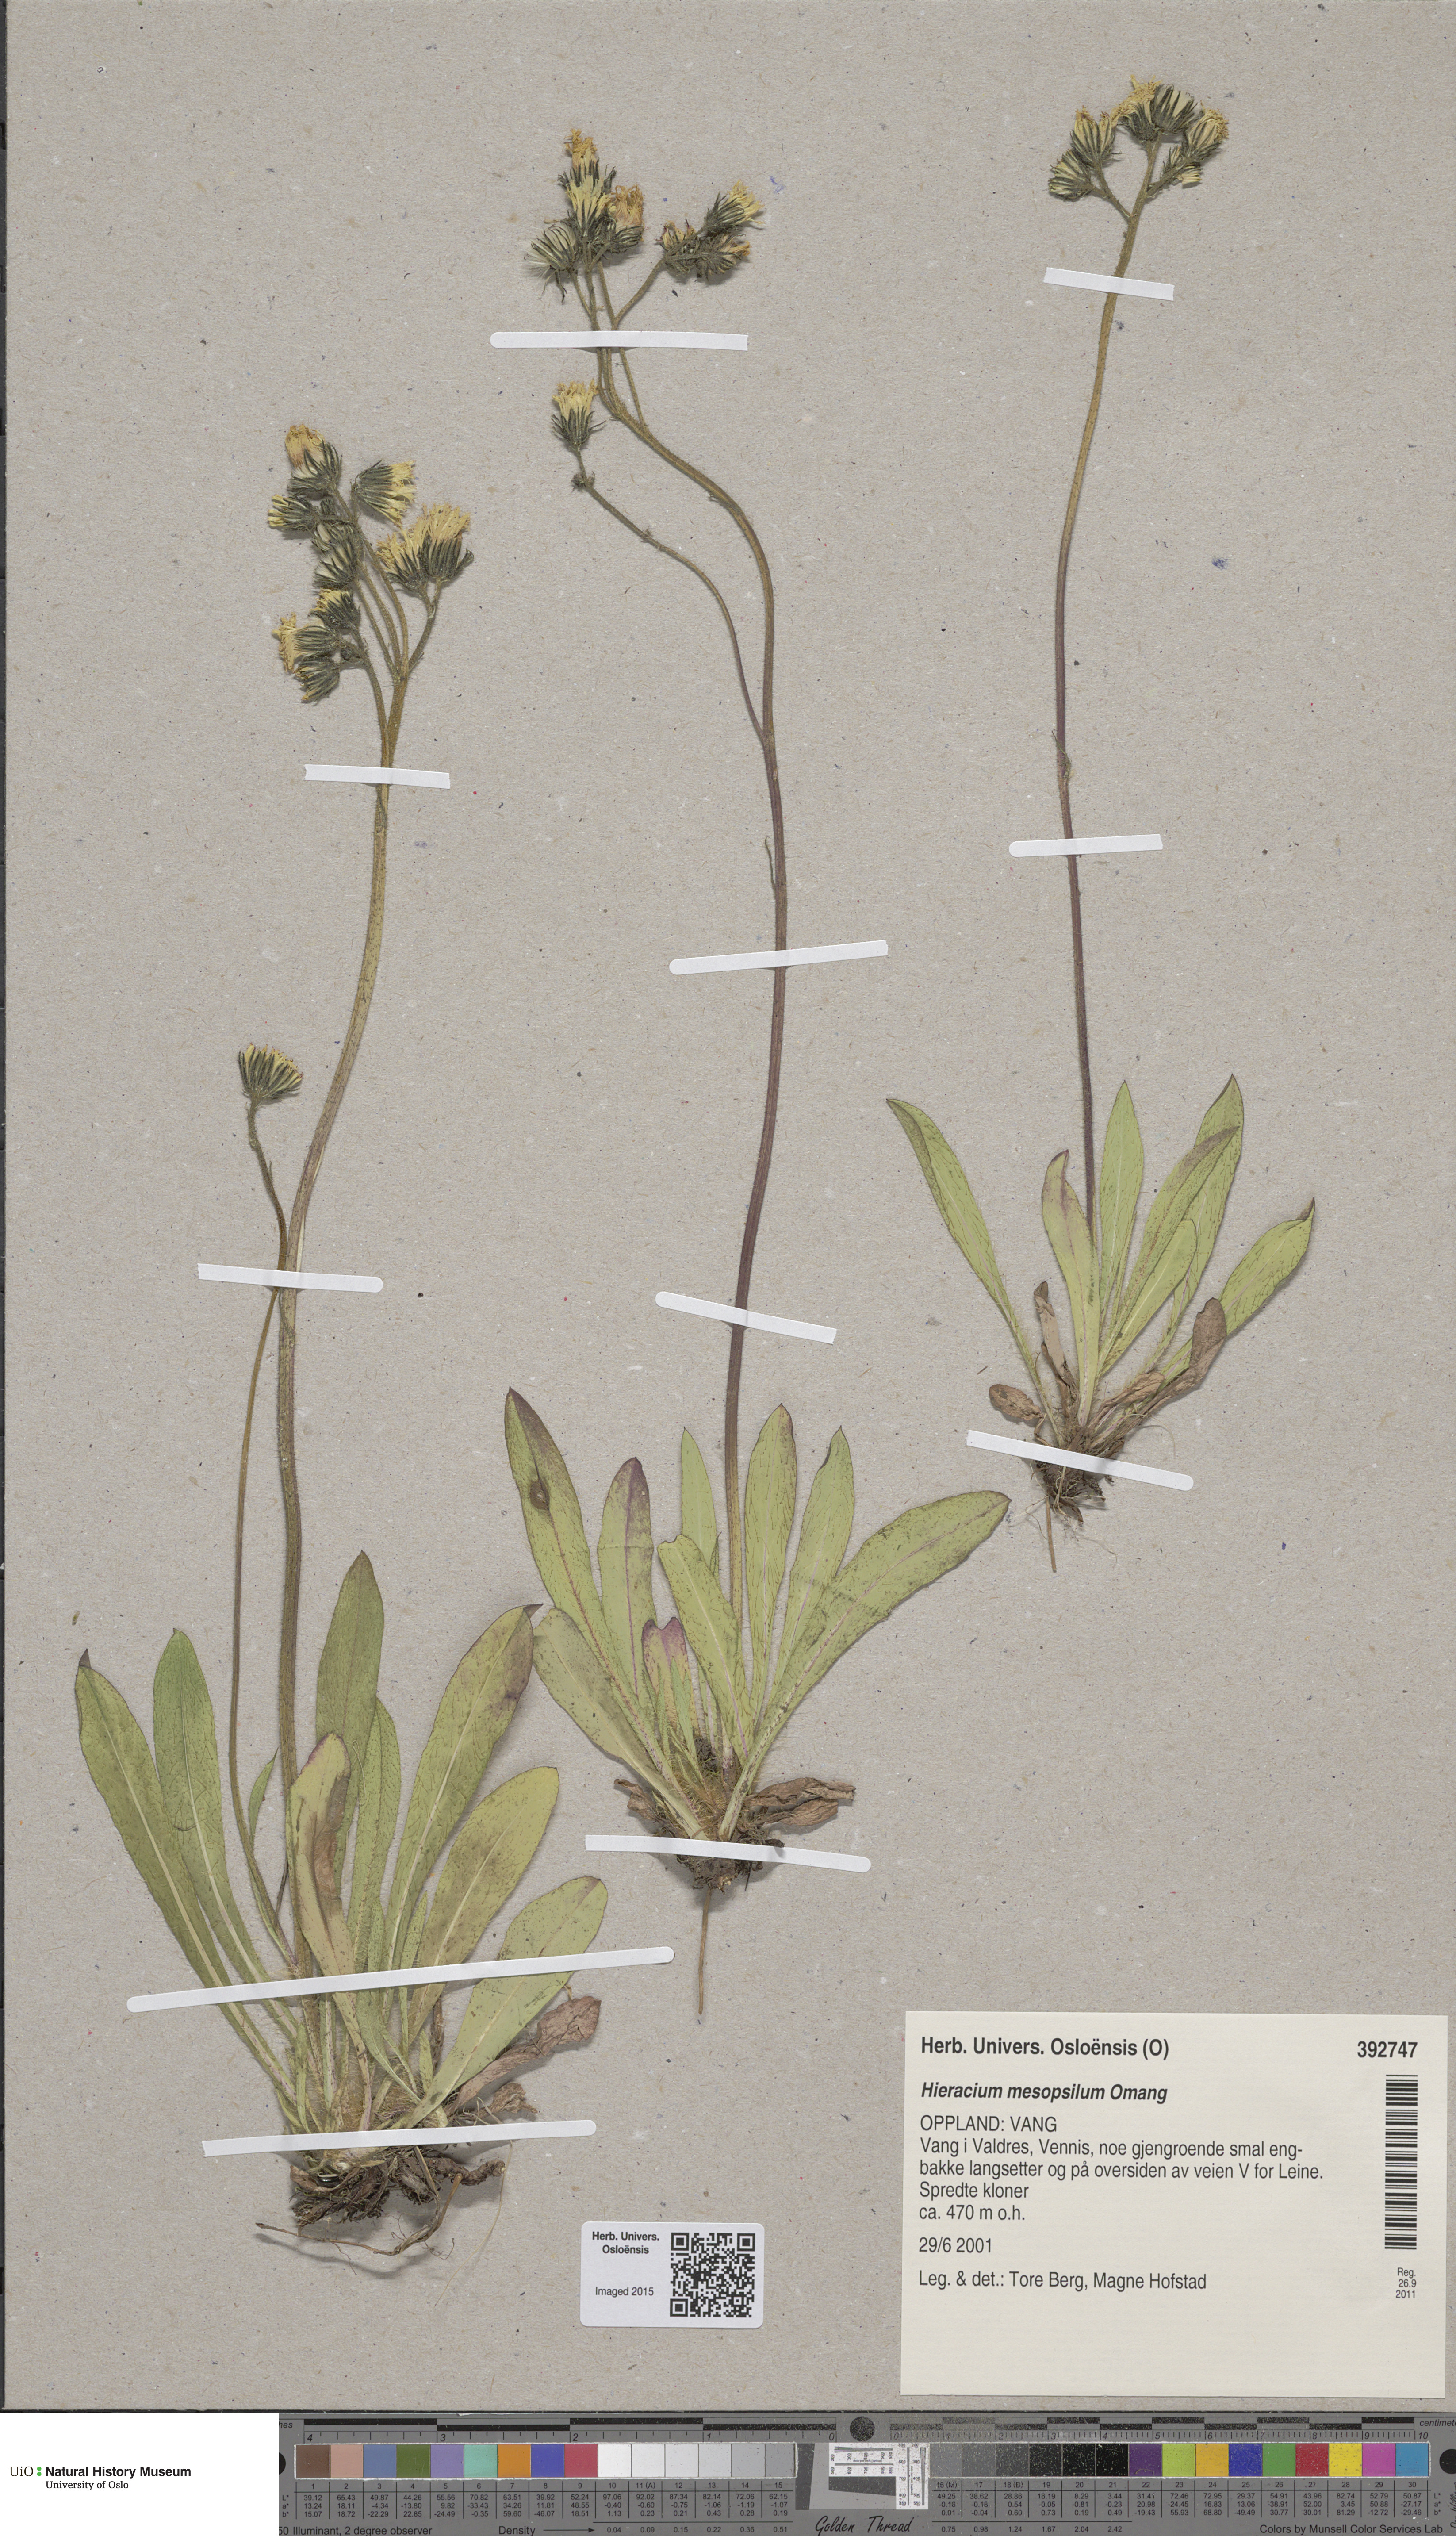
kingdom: Plantae
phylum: Tracheophyta
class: Magnoliopsida
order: Asterales
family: Asteraceae
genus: Pilosella
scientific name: Pilosella dubia
